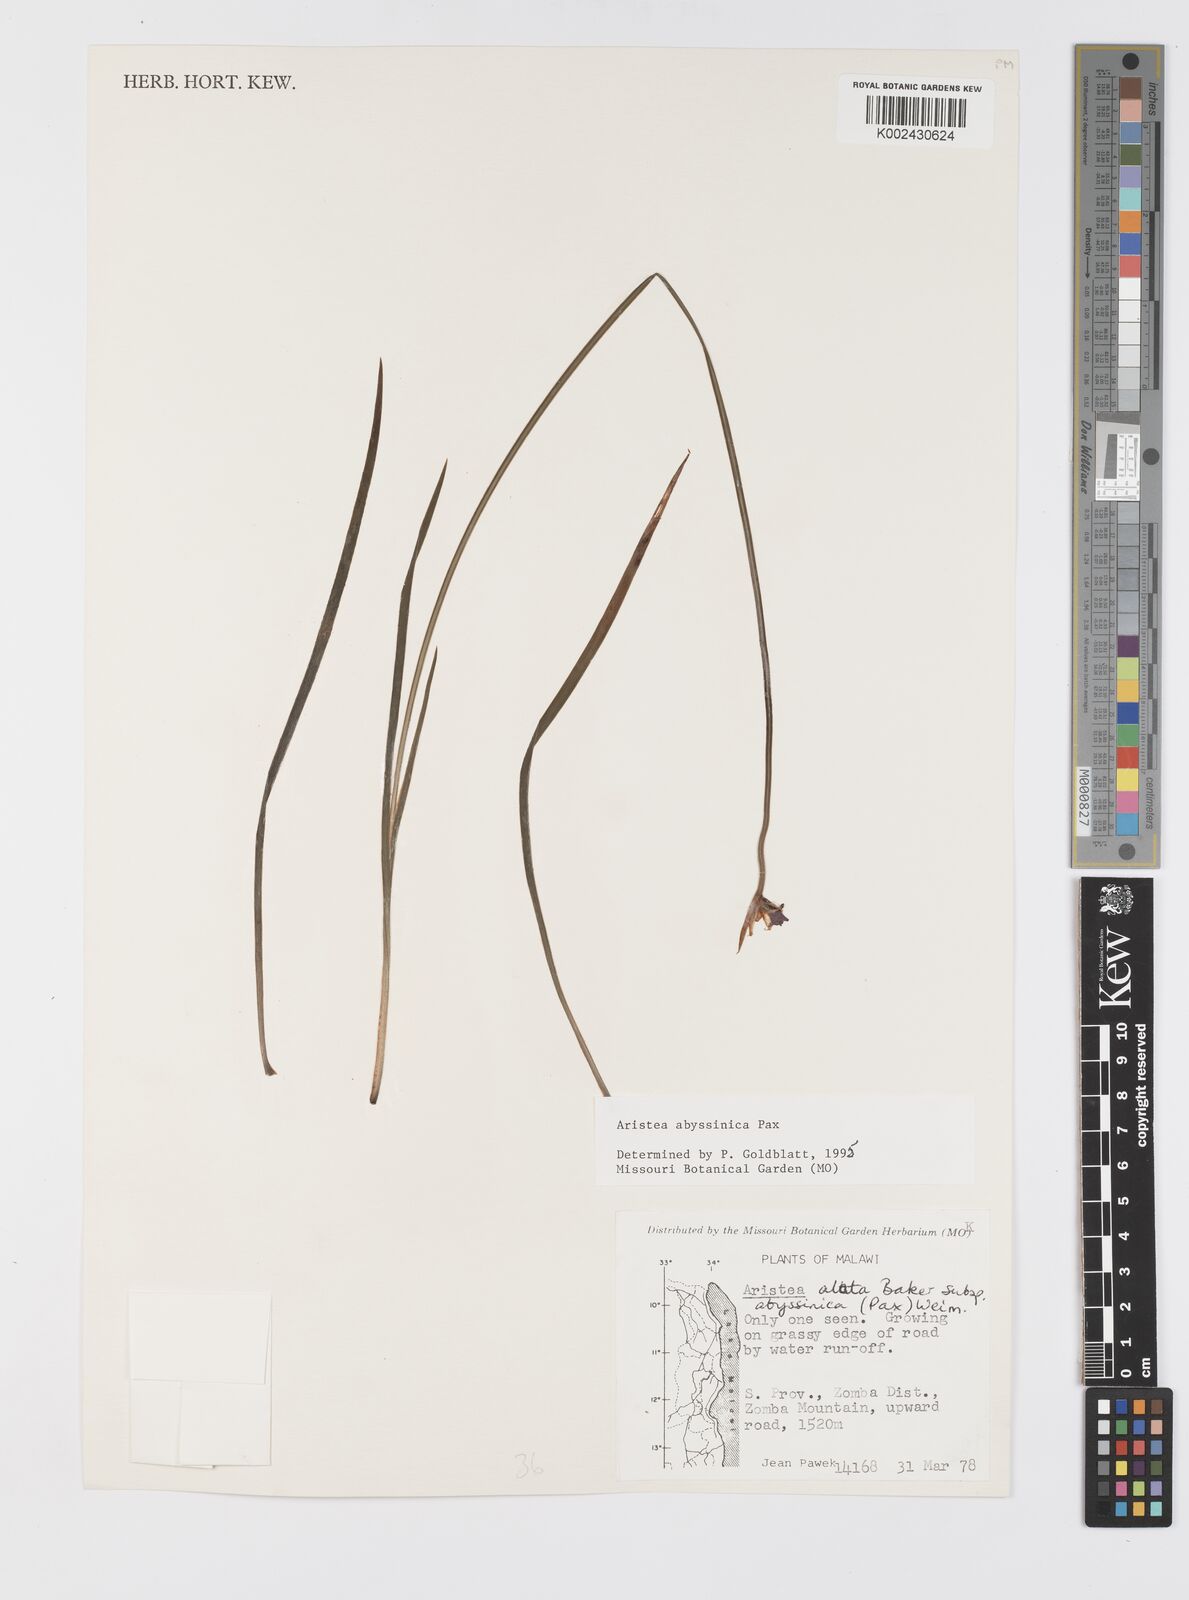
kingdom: Plantae
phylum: Tracheophyta
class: Liliopsida
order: Asparagales
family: Iridaceae
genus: Aristea
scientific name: Aristea abyssinica
